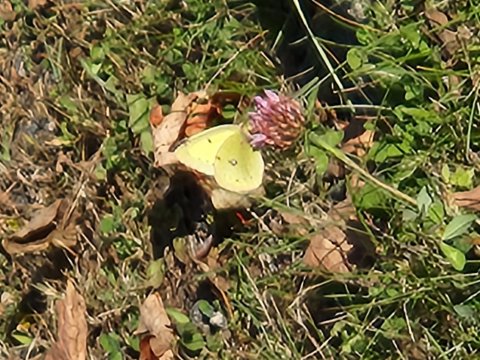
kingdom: Animalia
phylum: Arthropoda
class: Insecta
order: Lepidoptera
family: Pieridae
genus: Colias
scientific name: Colias philodice
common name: Clouded Sulphur
